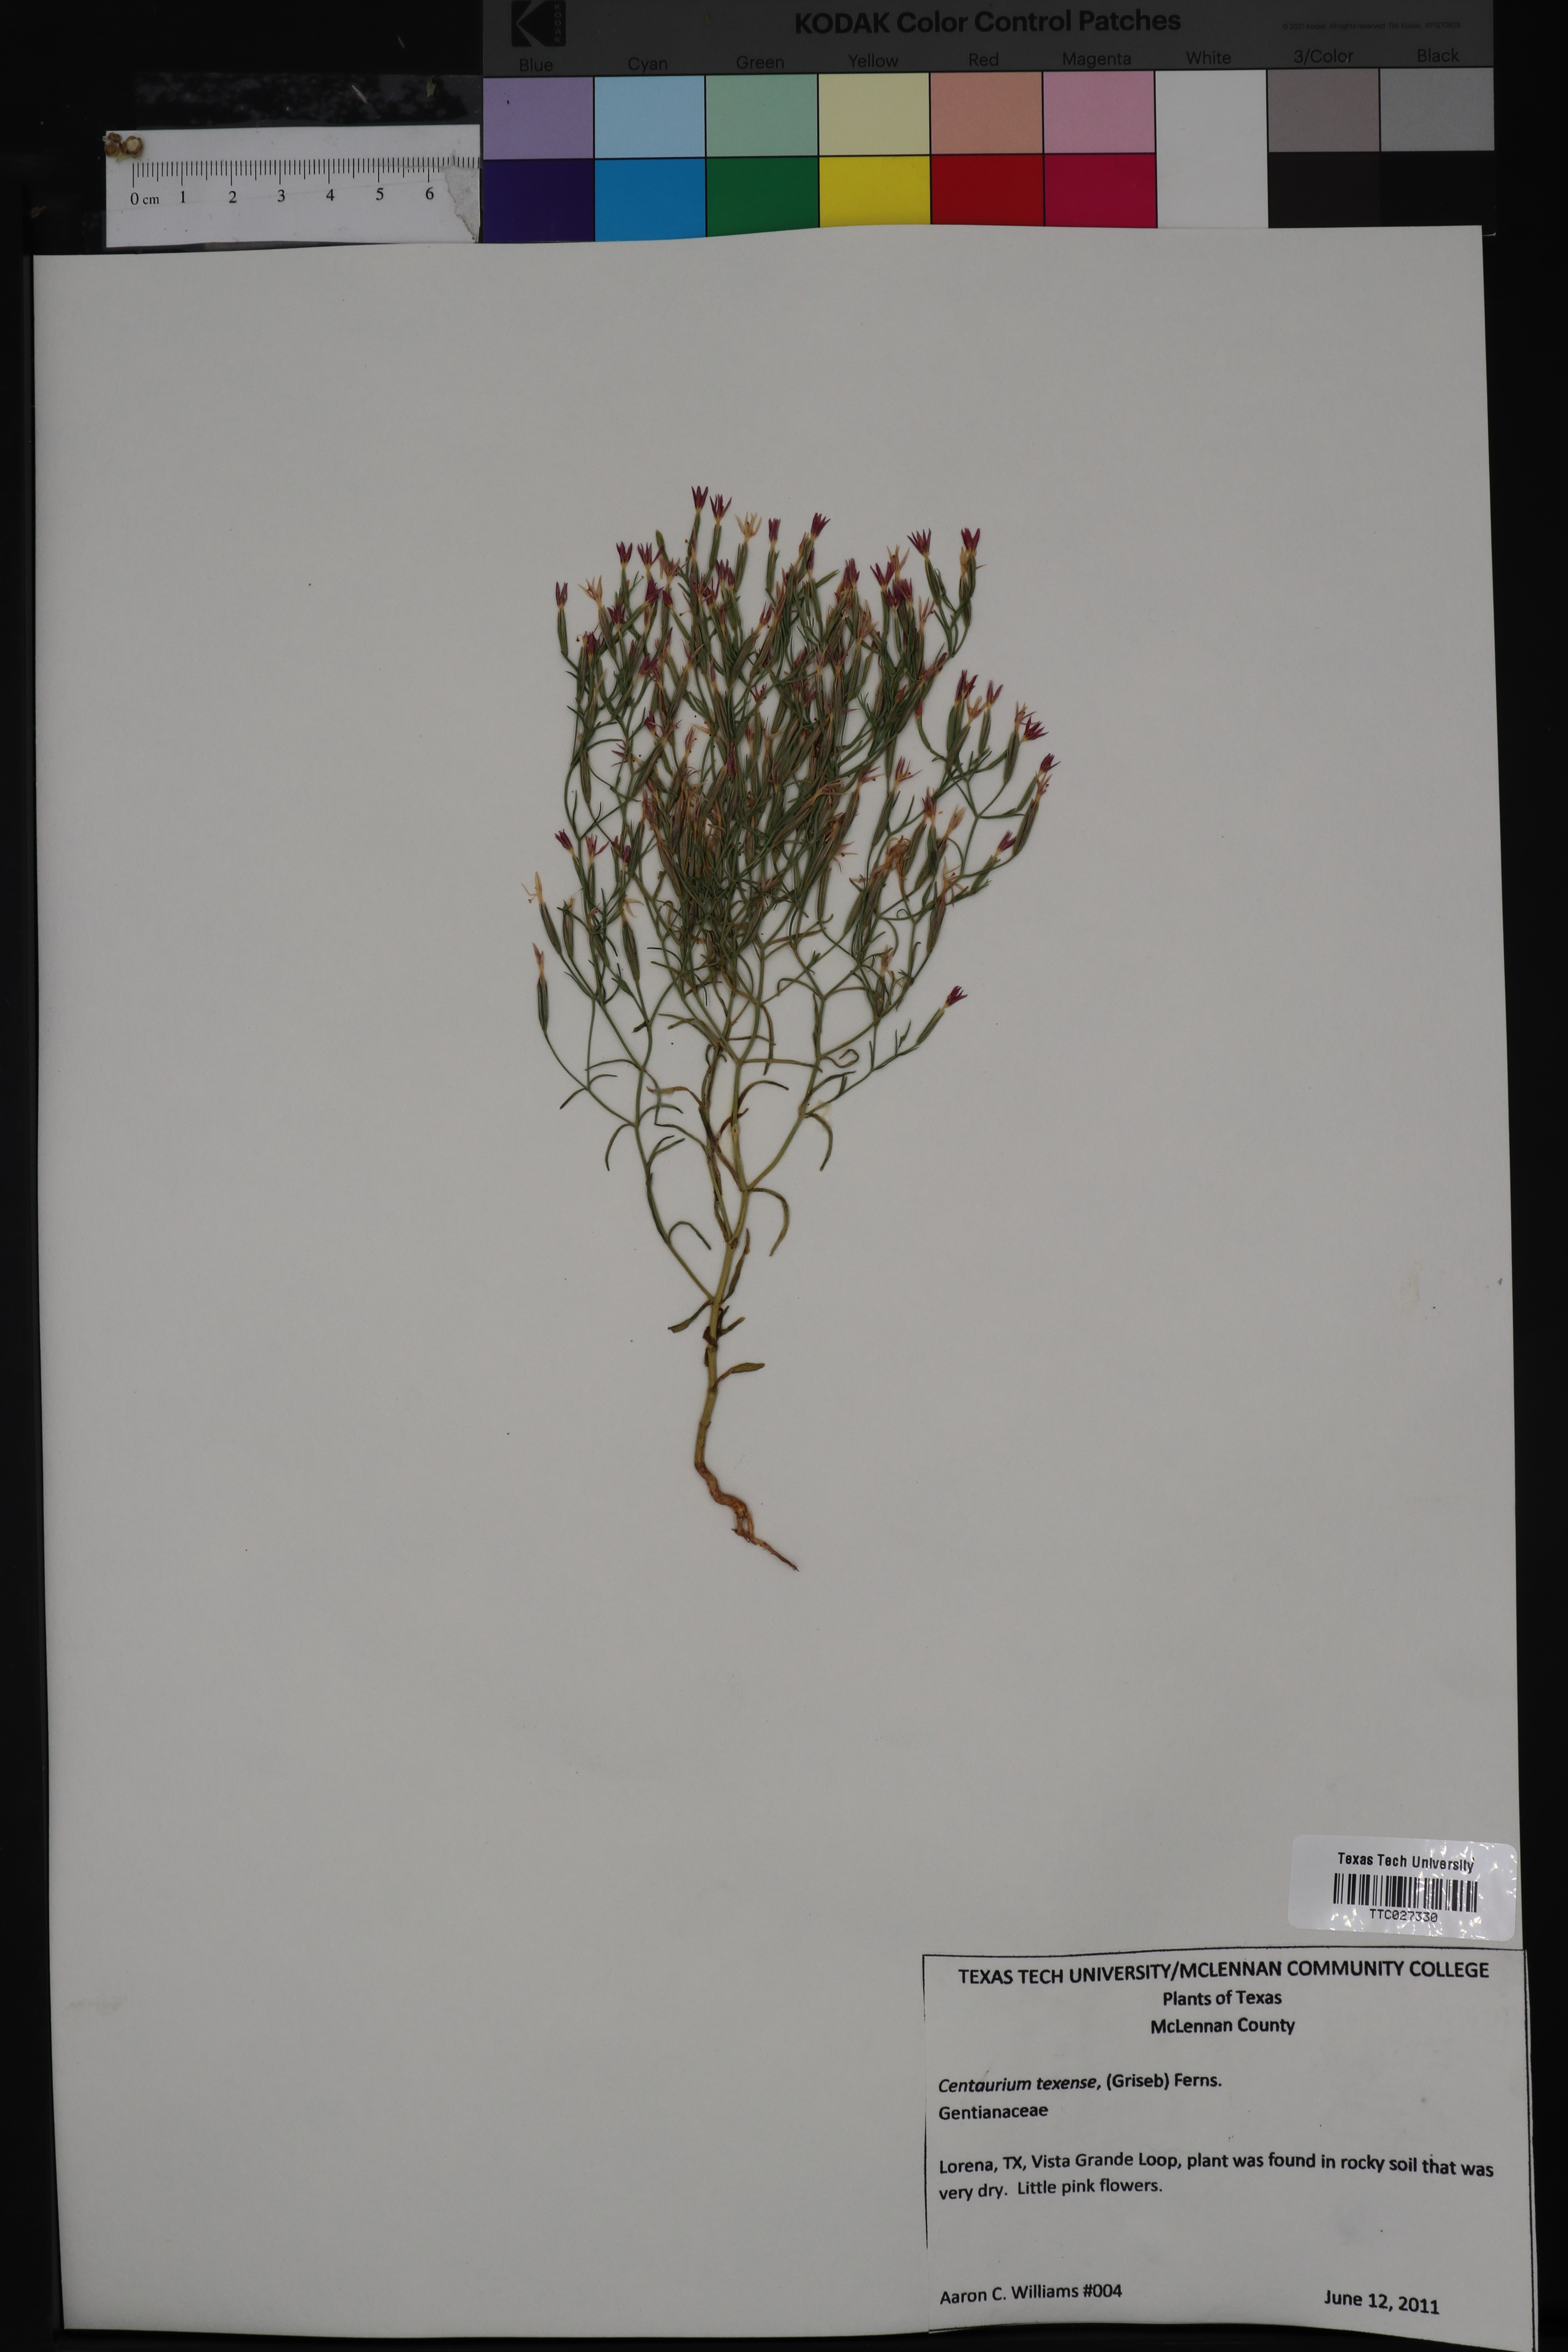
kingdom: Plantae
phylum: Tracheophyta
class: Magnoliopsida
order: Gentianales
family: Gentianaceae
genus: Zeltnera
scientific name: Zeltnera texensis
